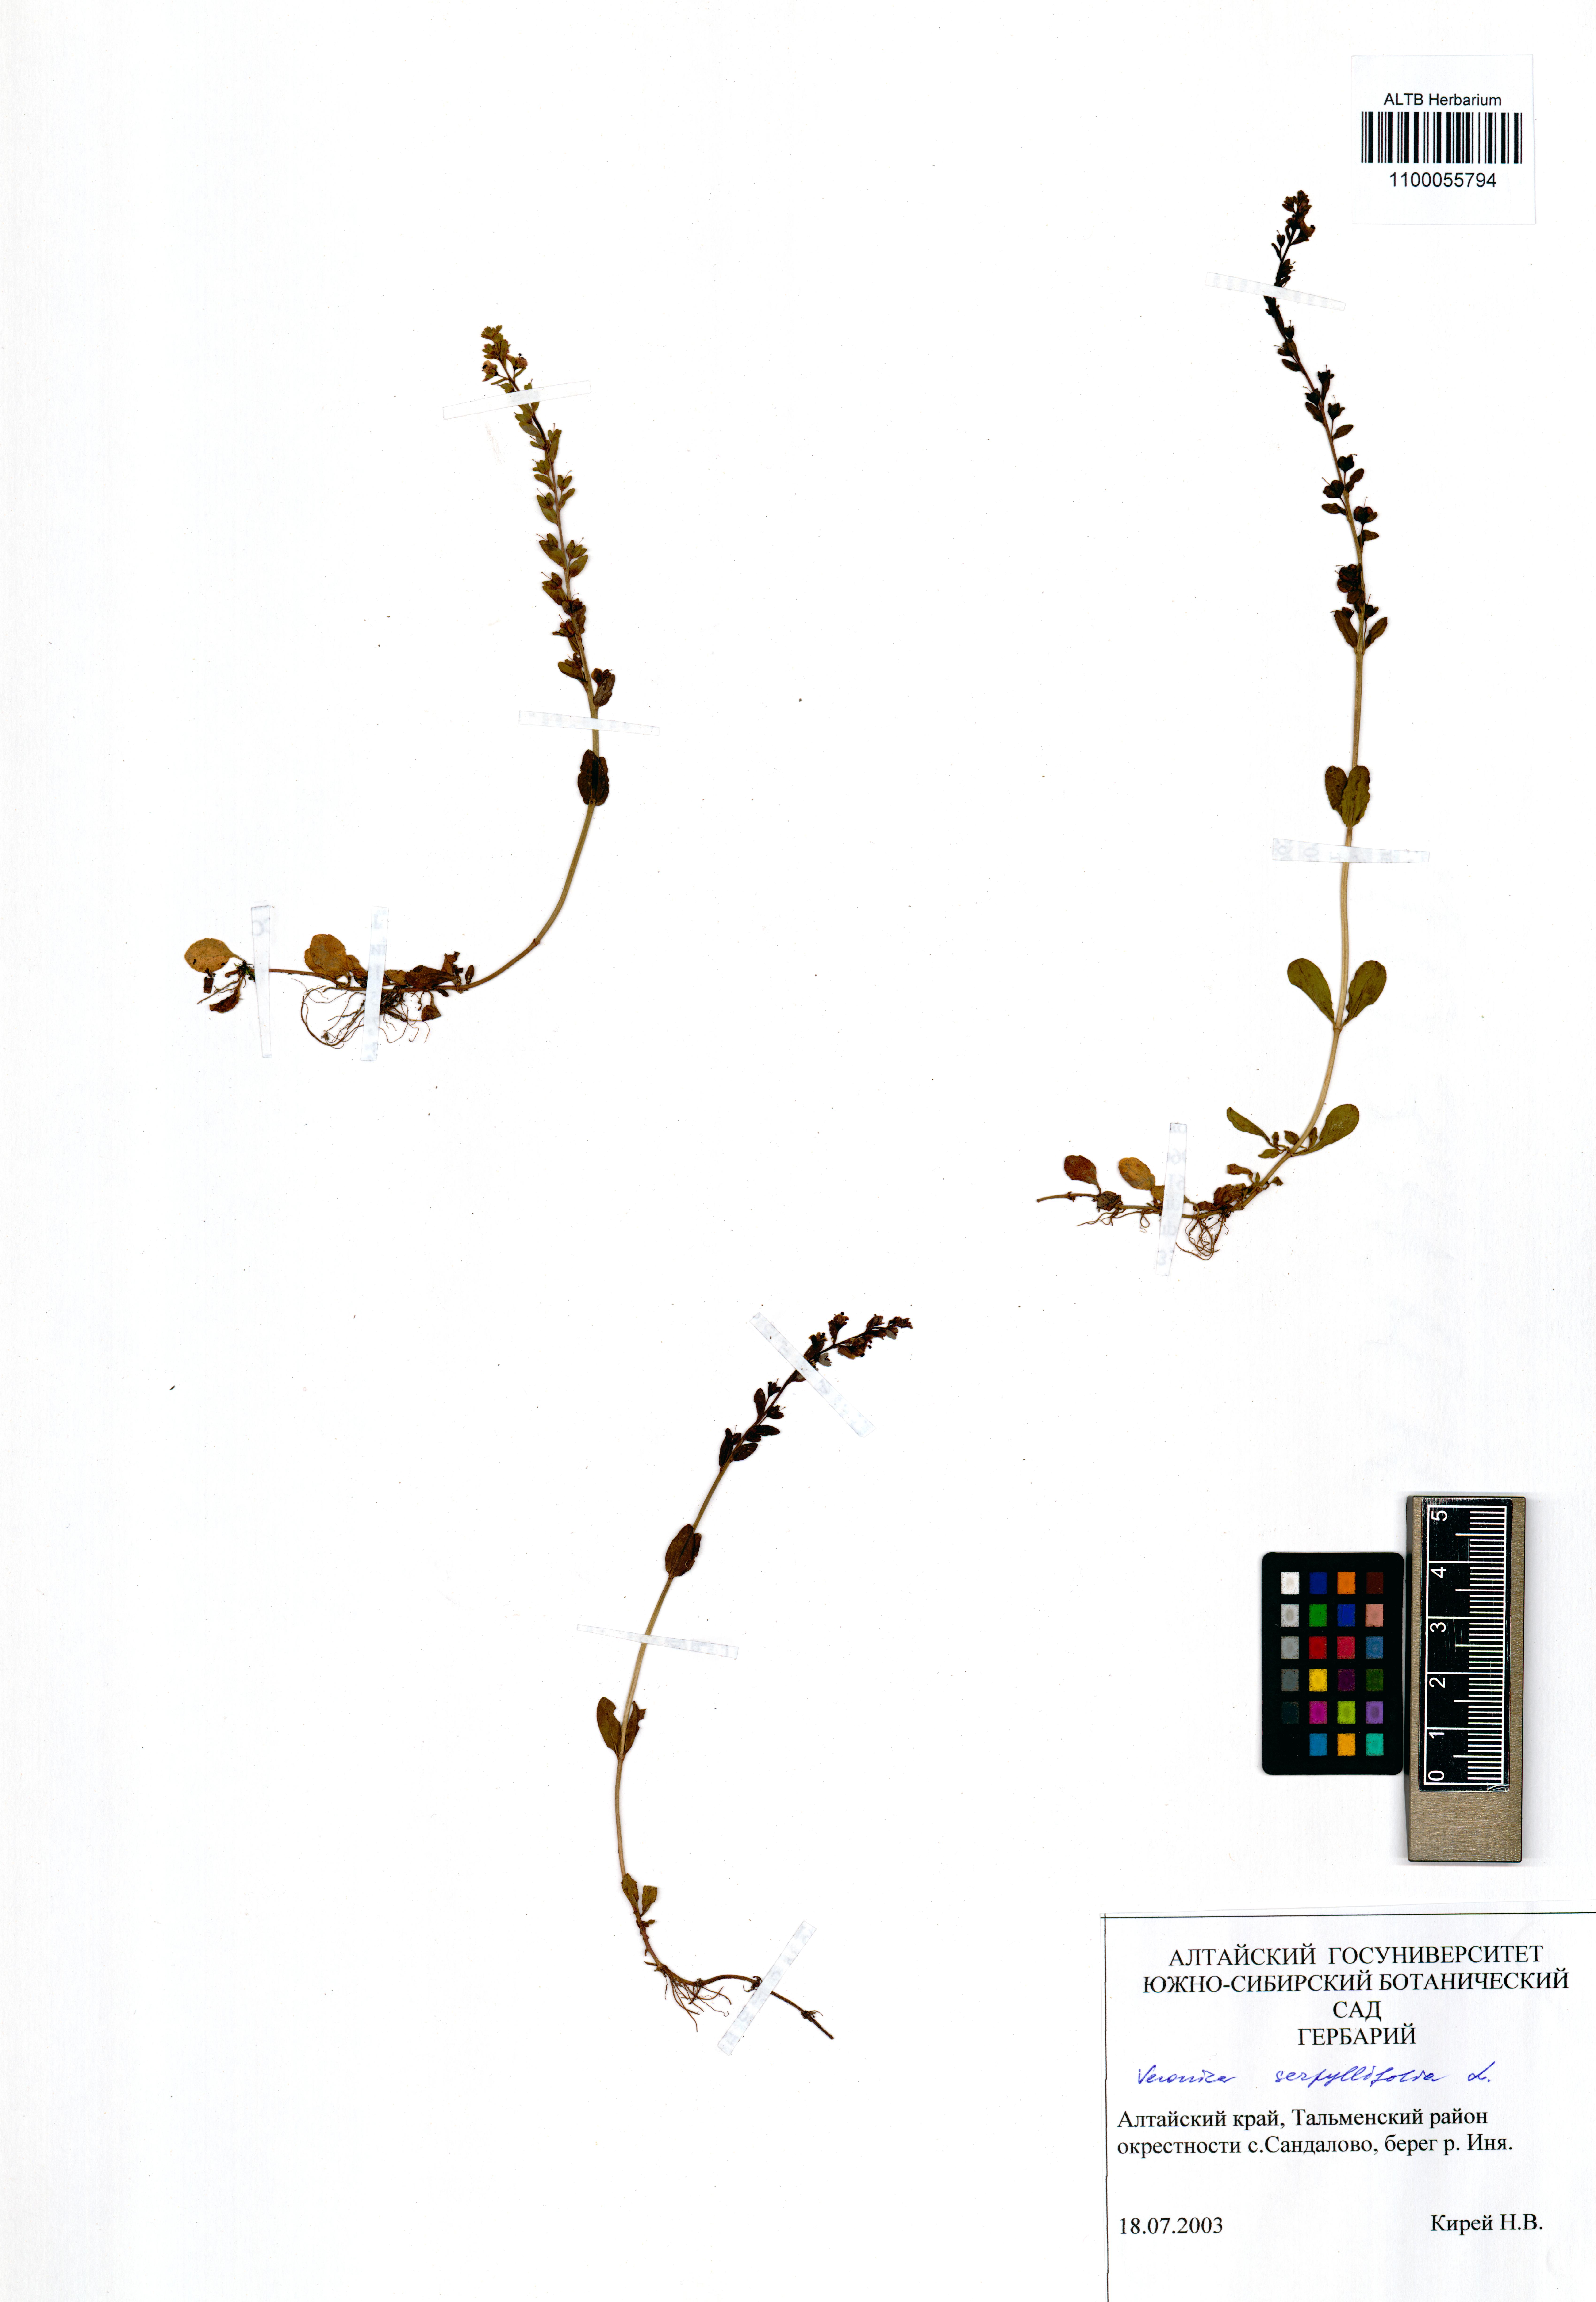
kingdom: Plantae
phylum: Tracheophyta
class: Magnoliopsida
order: Lamiales
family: Plantaginaceae
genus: Veronica
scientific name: Veronica serpyllifolia
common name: Thyme-leaved speedwell
